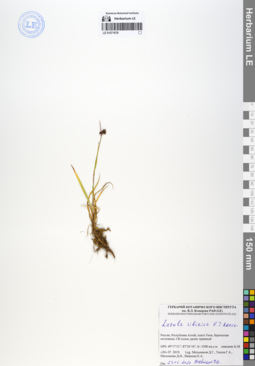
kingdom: Plantae
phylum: Tracheophyta
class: Liliopsida
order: Poales
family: Juncaceae
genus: Luzula
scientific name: Luzula multiflora
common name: Heath wood-rush
